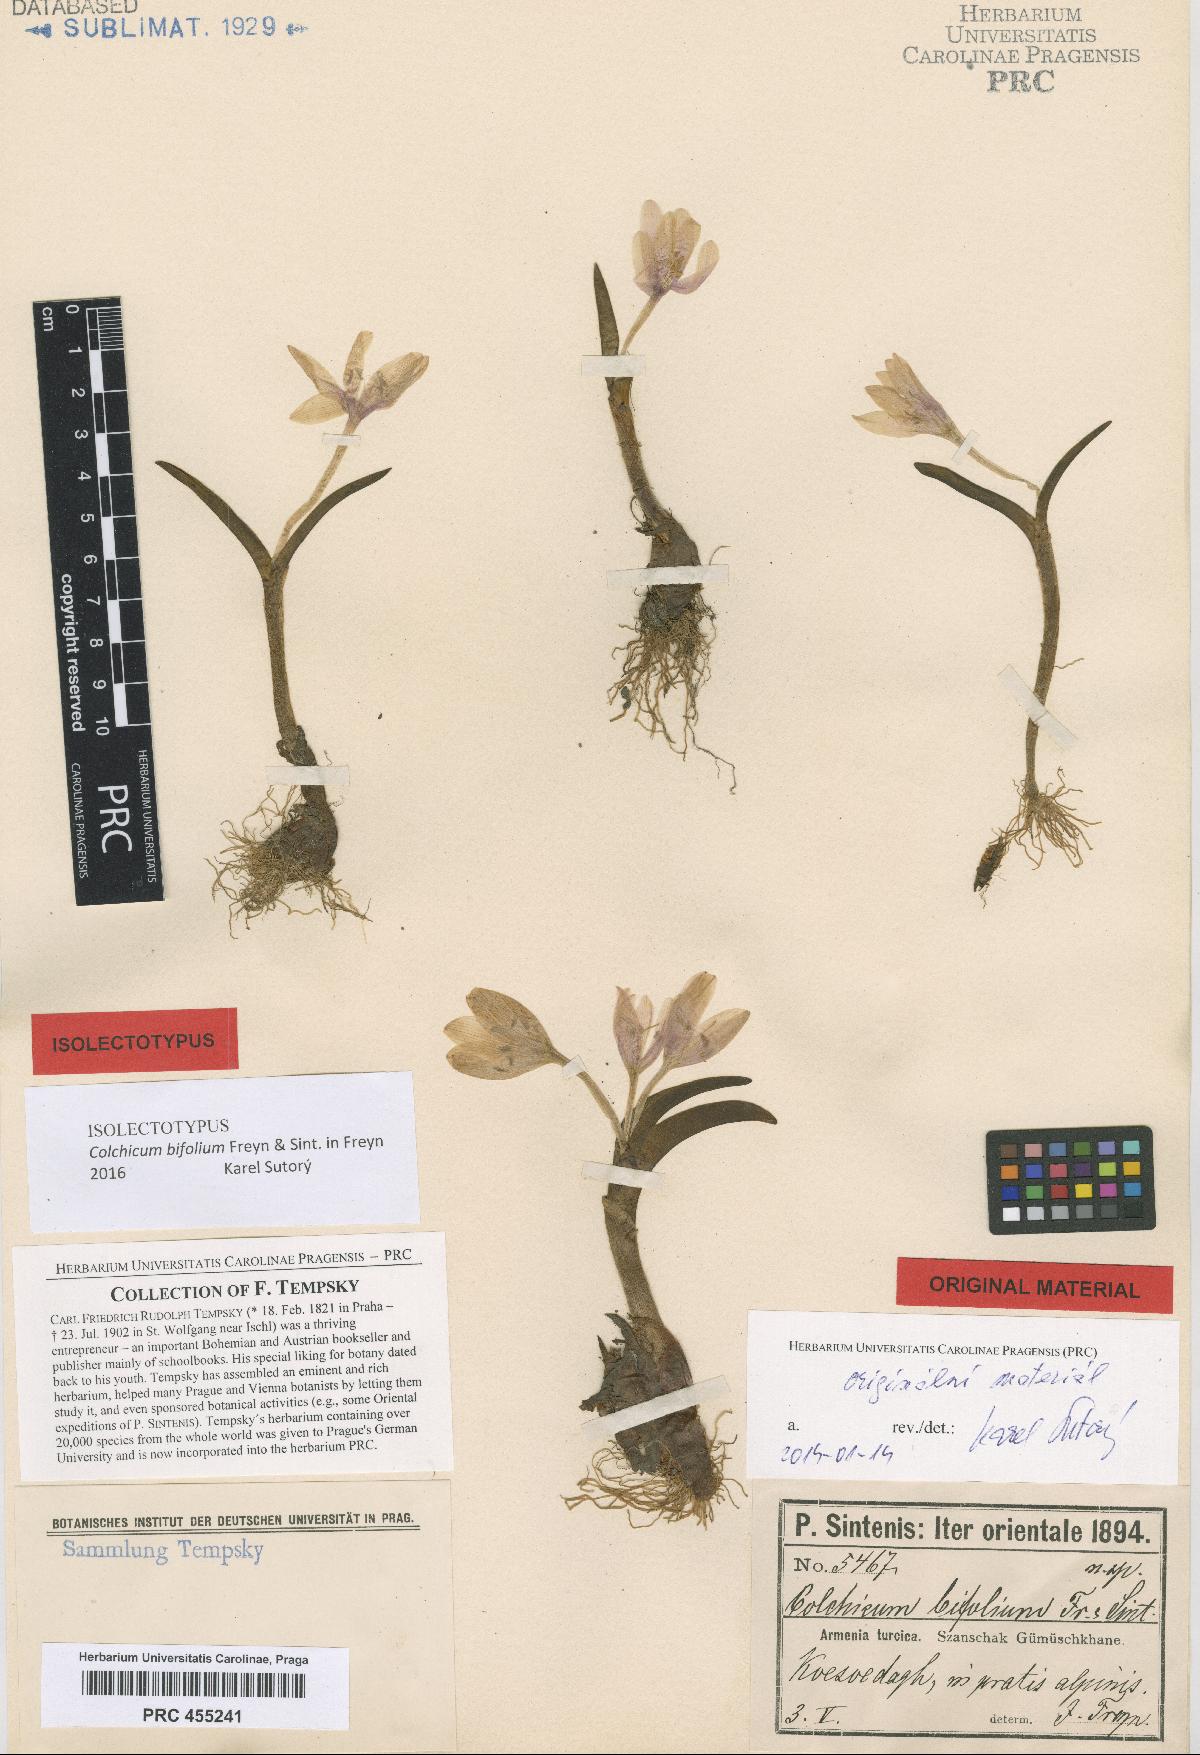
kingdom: Plantae
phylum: Tracheophyta
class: Liliopsida
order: Liliales
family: Colchicaceae
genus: Colchicum
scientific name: Colchicum szovitsii
